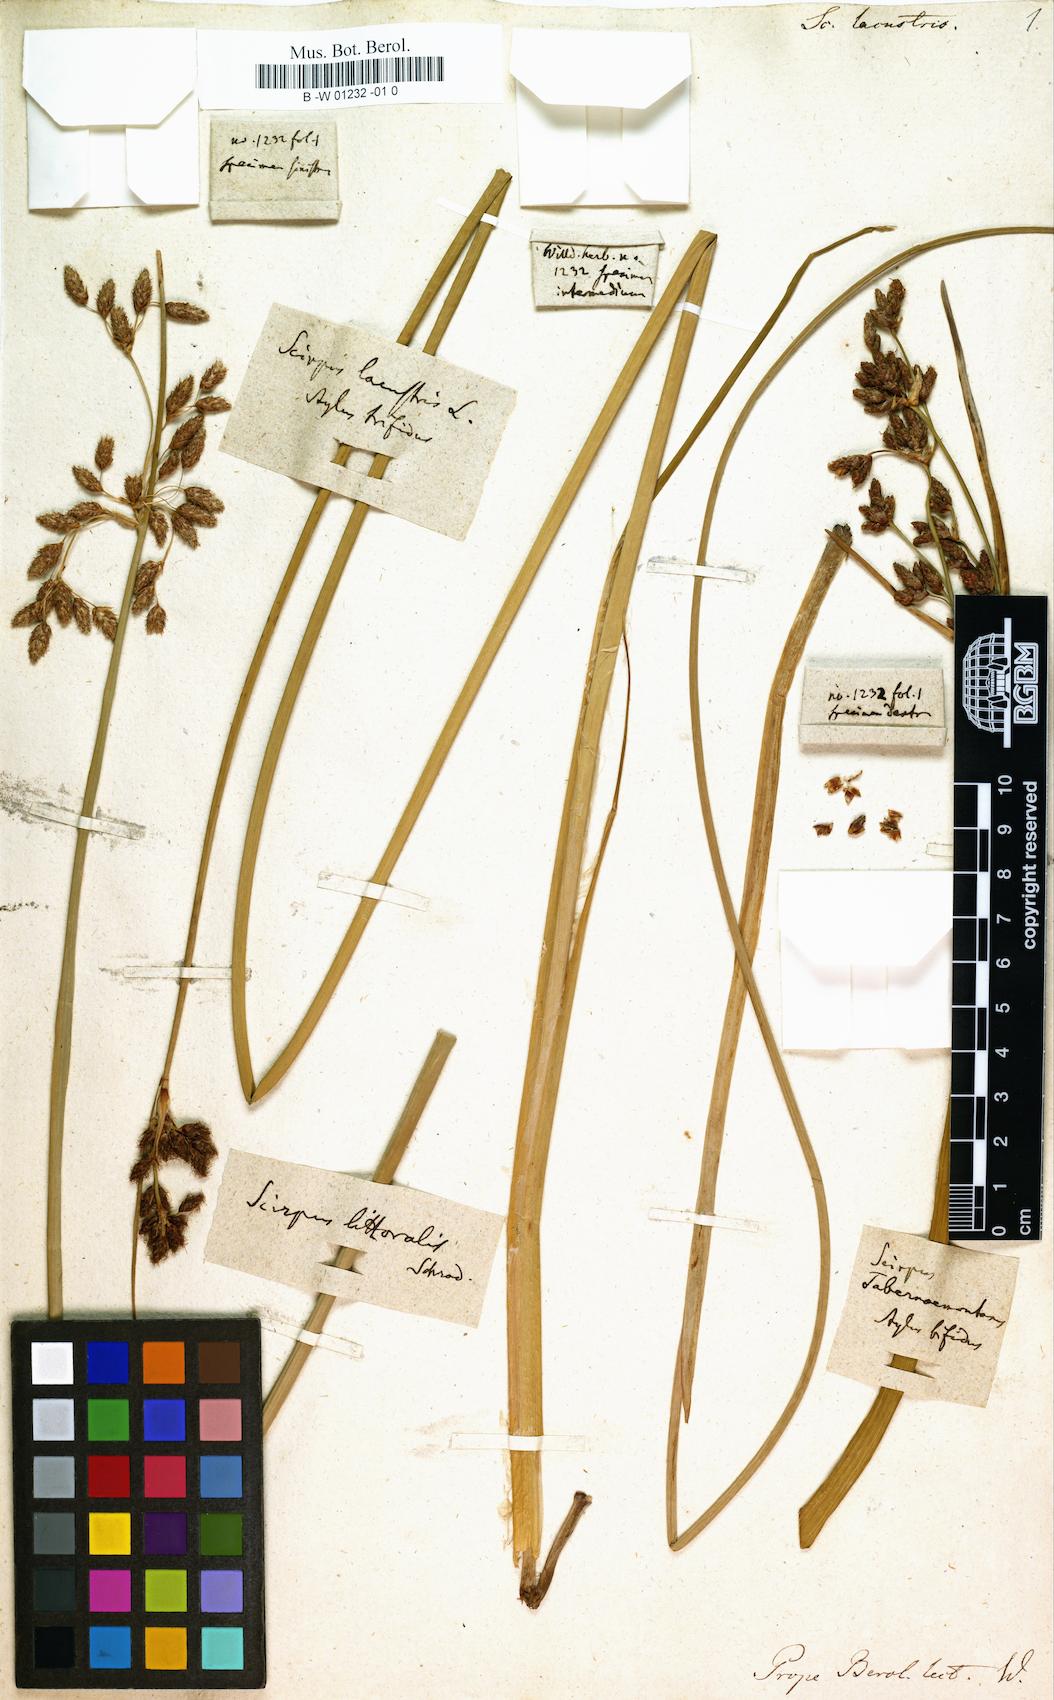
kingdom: Plantae
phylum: Tracheophyta
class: Liliopsida
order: Poales
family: Cyperaceae
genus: Schoenoplectus
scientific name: Schoenoplectus lacustris
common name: Common club-rush
